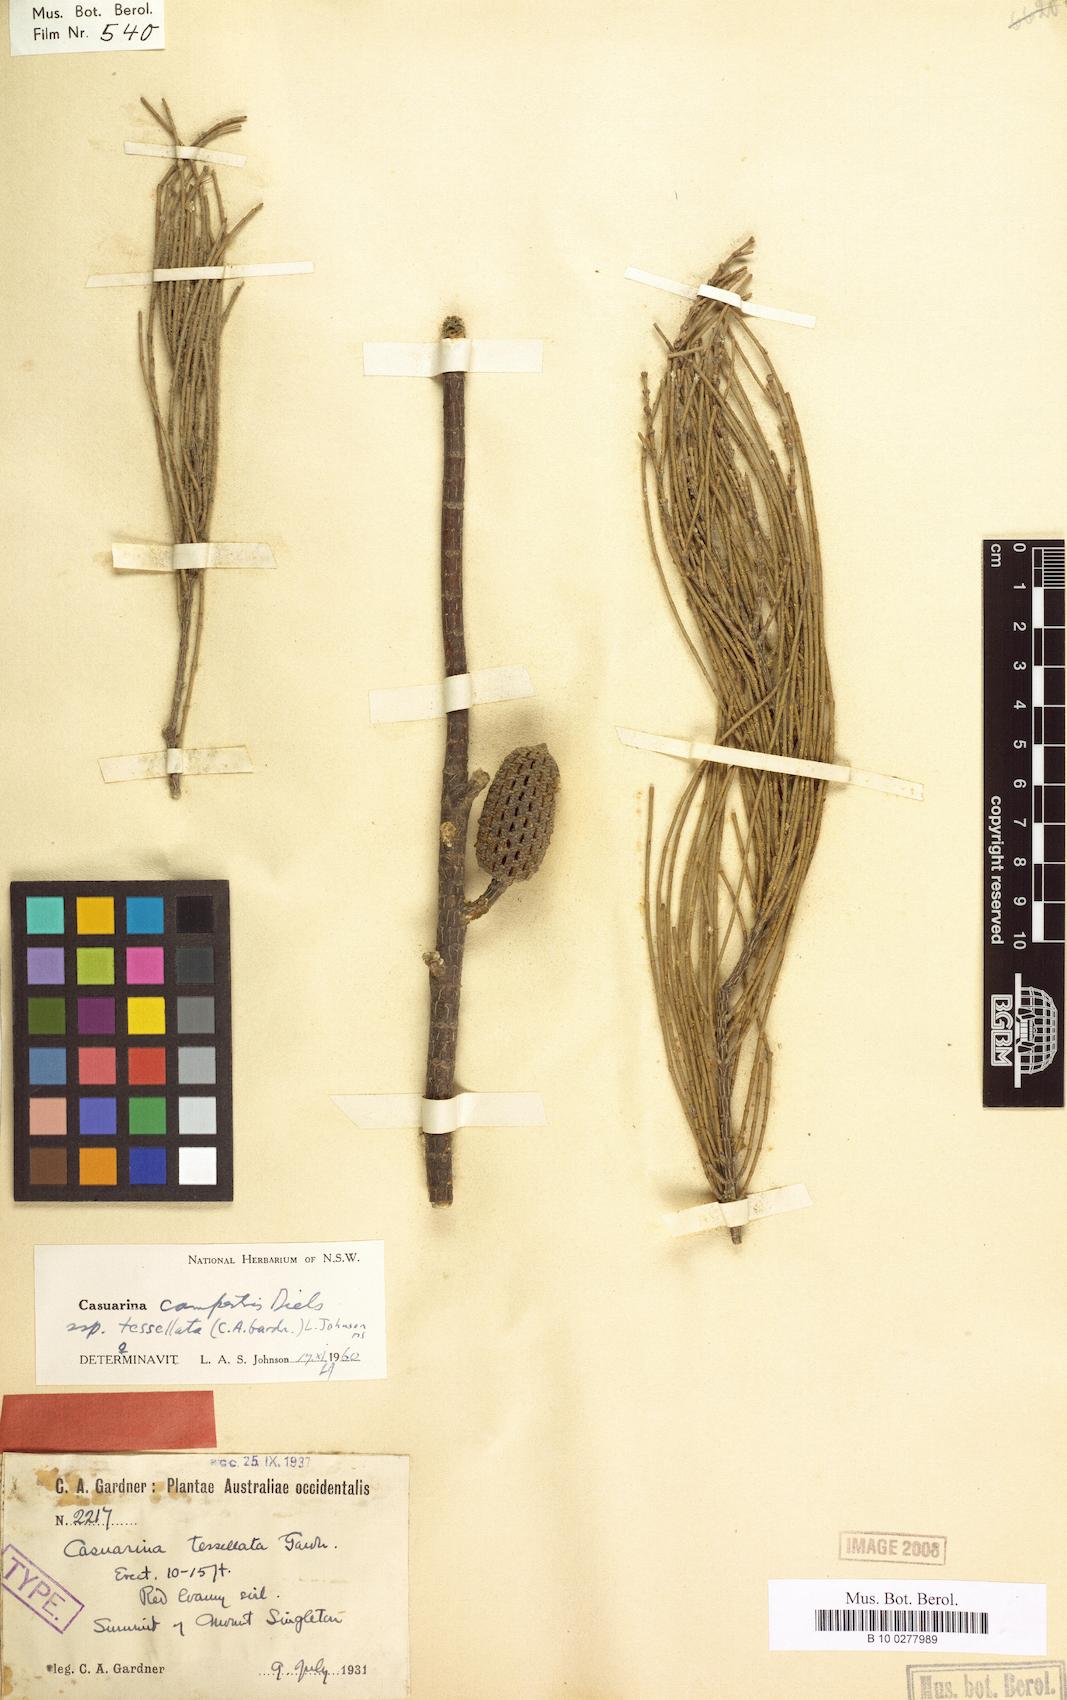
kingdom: Plantae
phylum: Tracheophyta
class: Magnoliopsida
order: Fagales
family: Casuarinaceae
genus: Allocasuarina
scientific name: Allocasuarina tessellata
